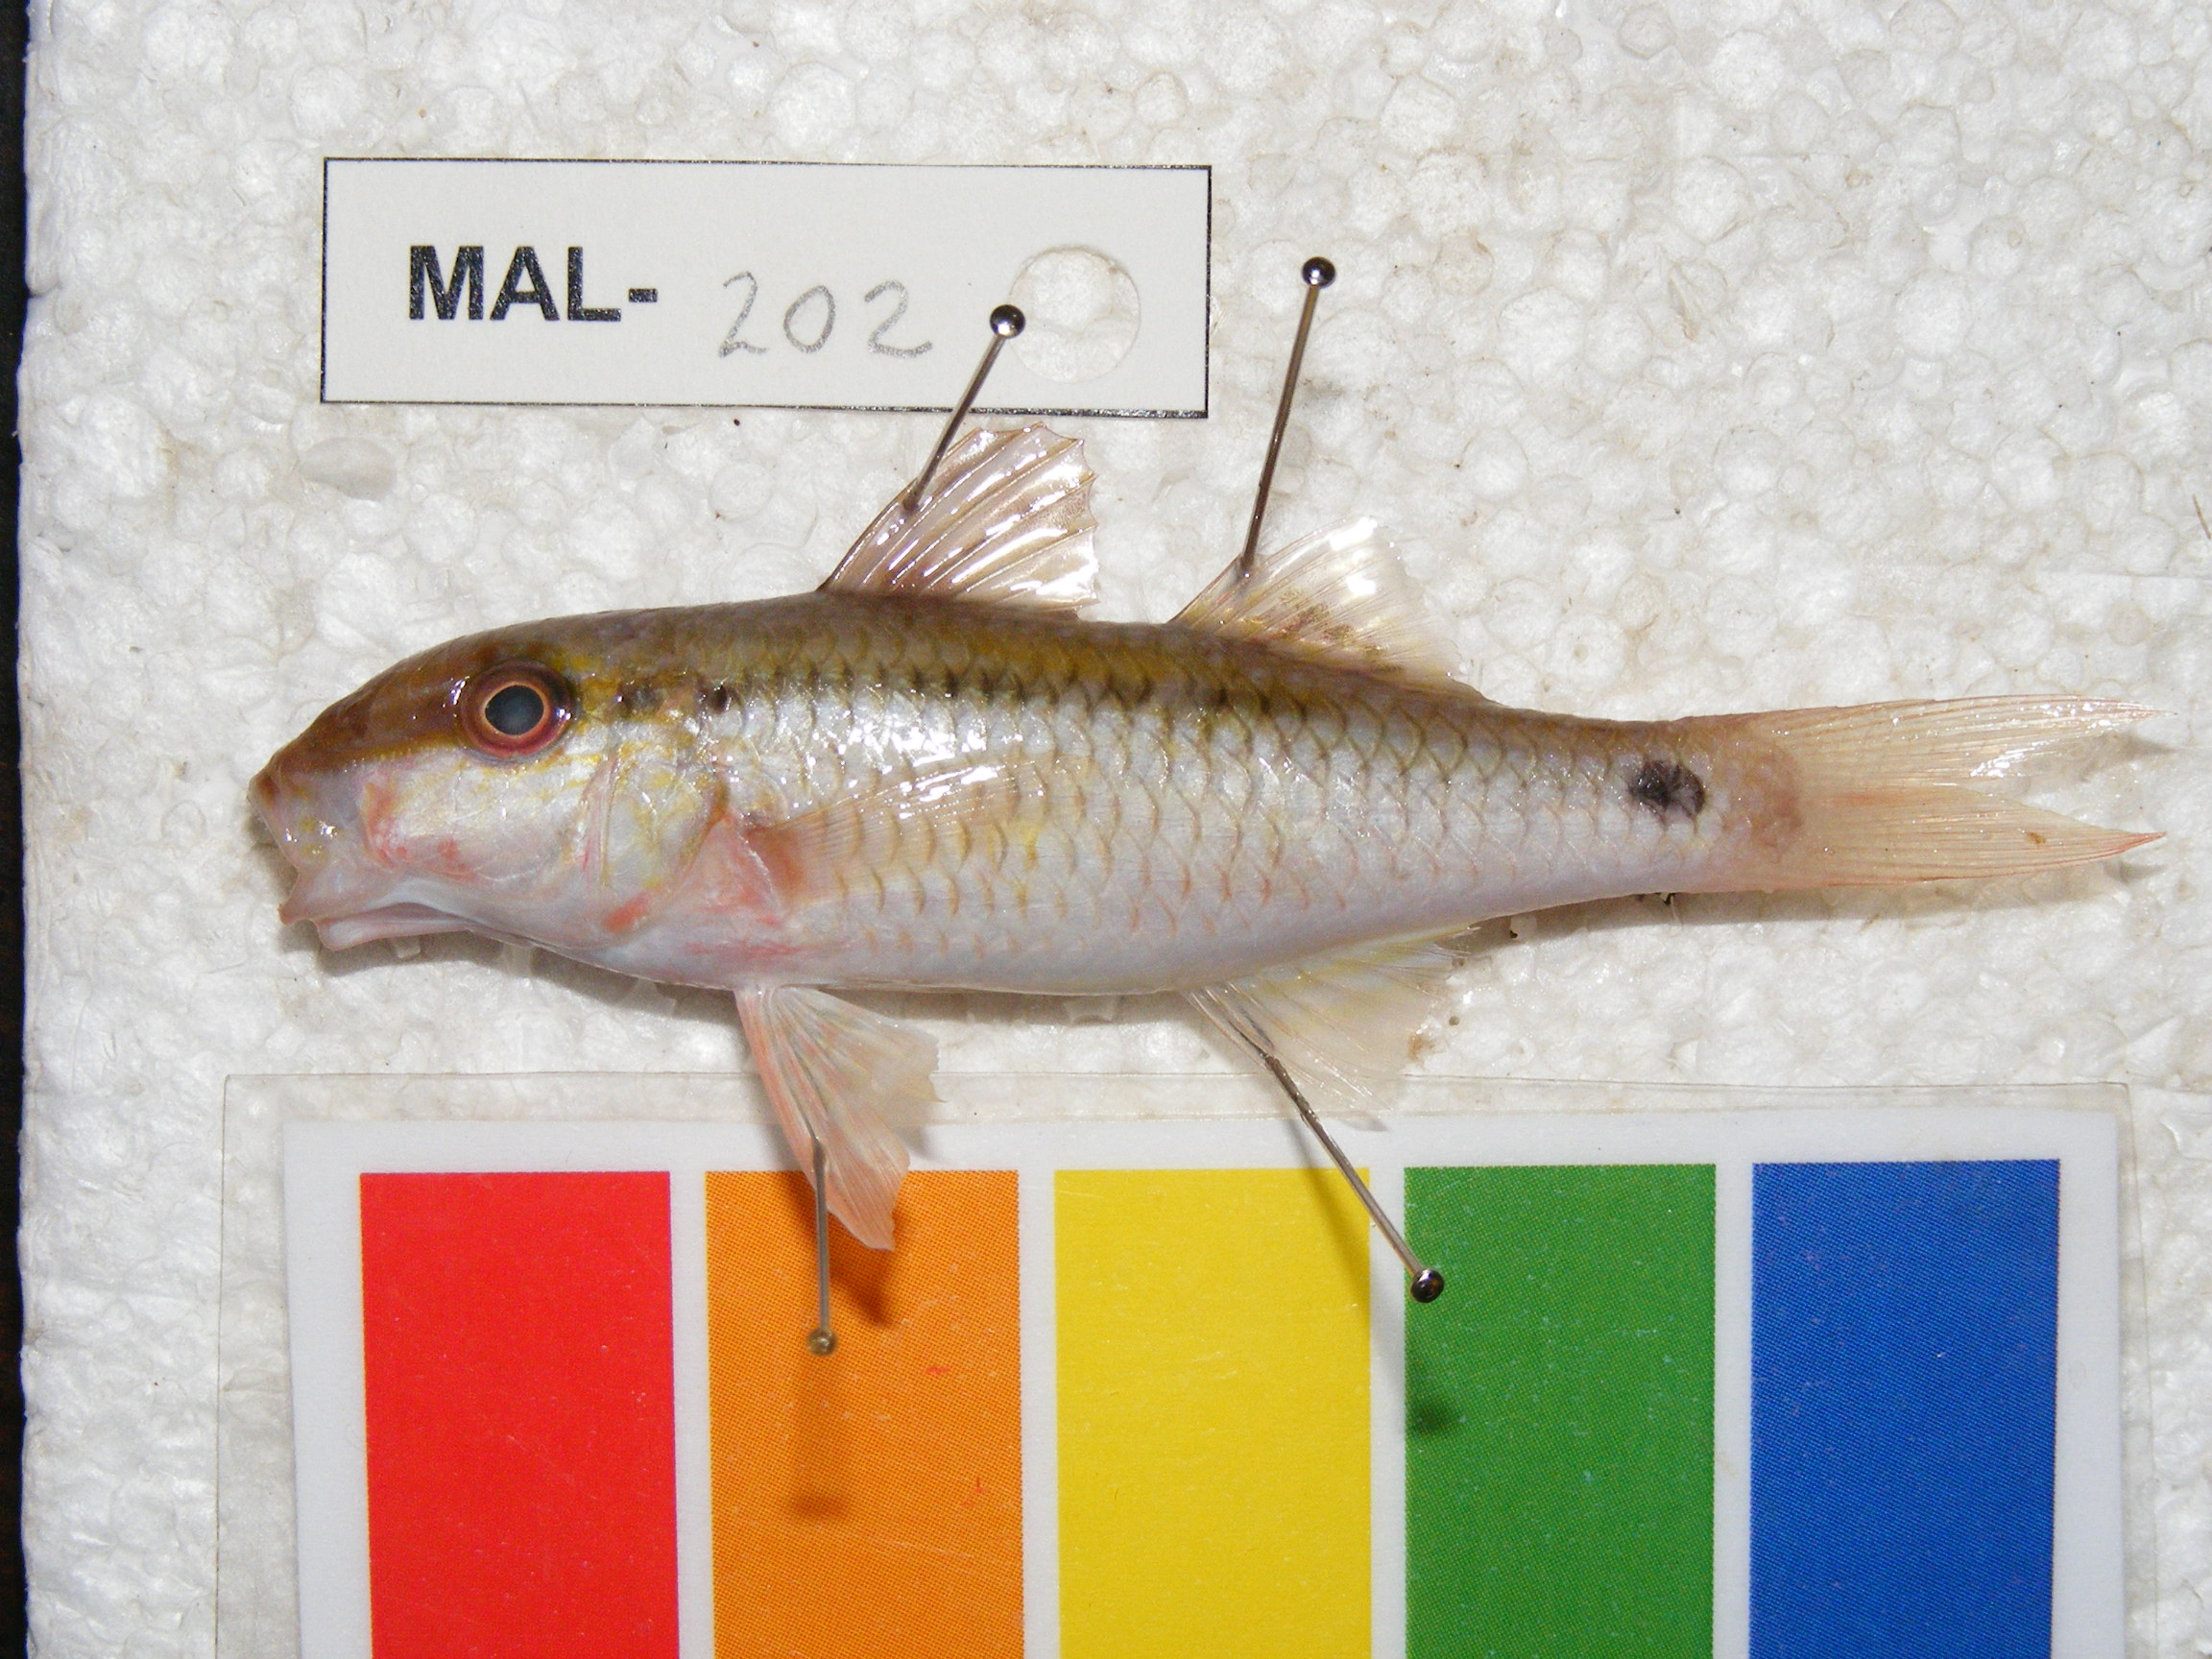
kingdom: Animalia
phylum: Chordata
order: Perciformes
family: Mullidae
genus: Parupeneus
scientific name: Parupeneus barberinus
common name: Dash-and-dot goatfish
